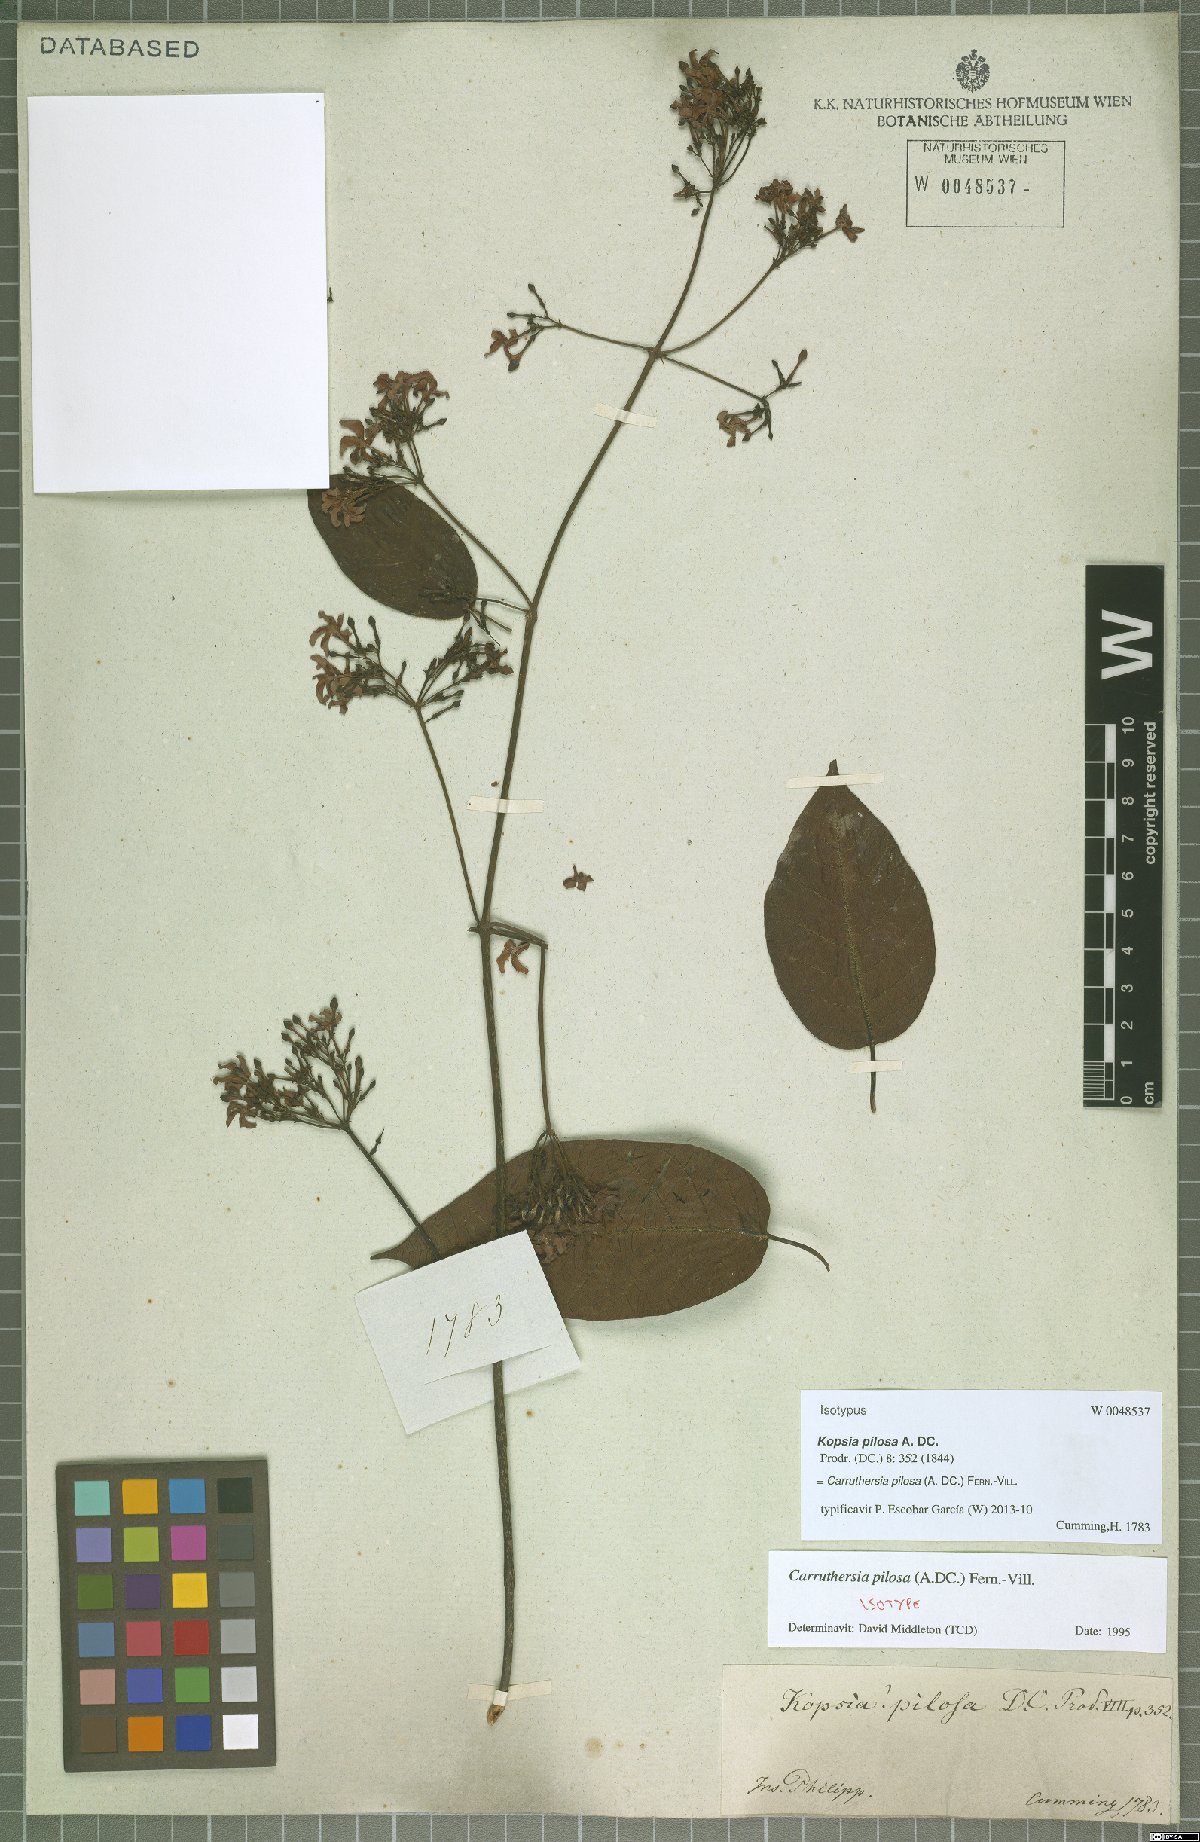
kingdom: Plantae
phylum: Tracheophyta
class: Magnoliopsida
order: Gentianales
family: Apocynaceae
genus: Carruthersia
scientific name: Carruthersia pilosa
